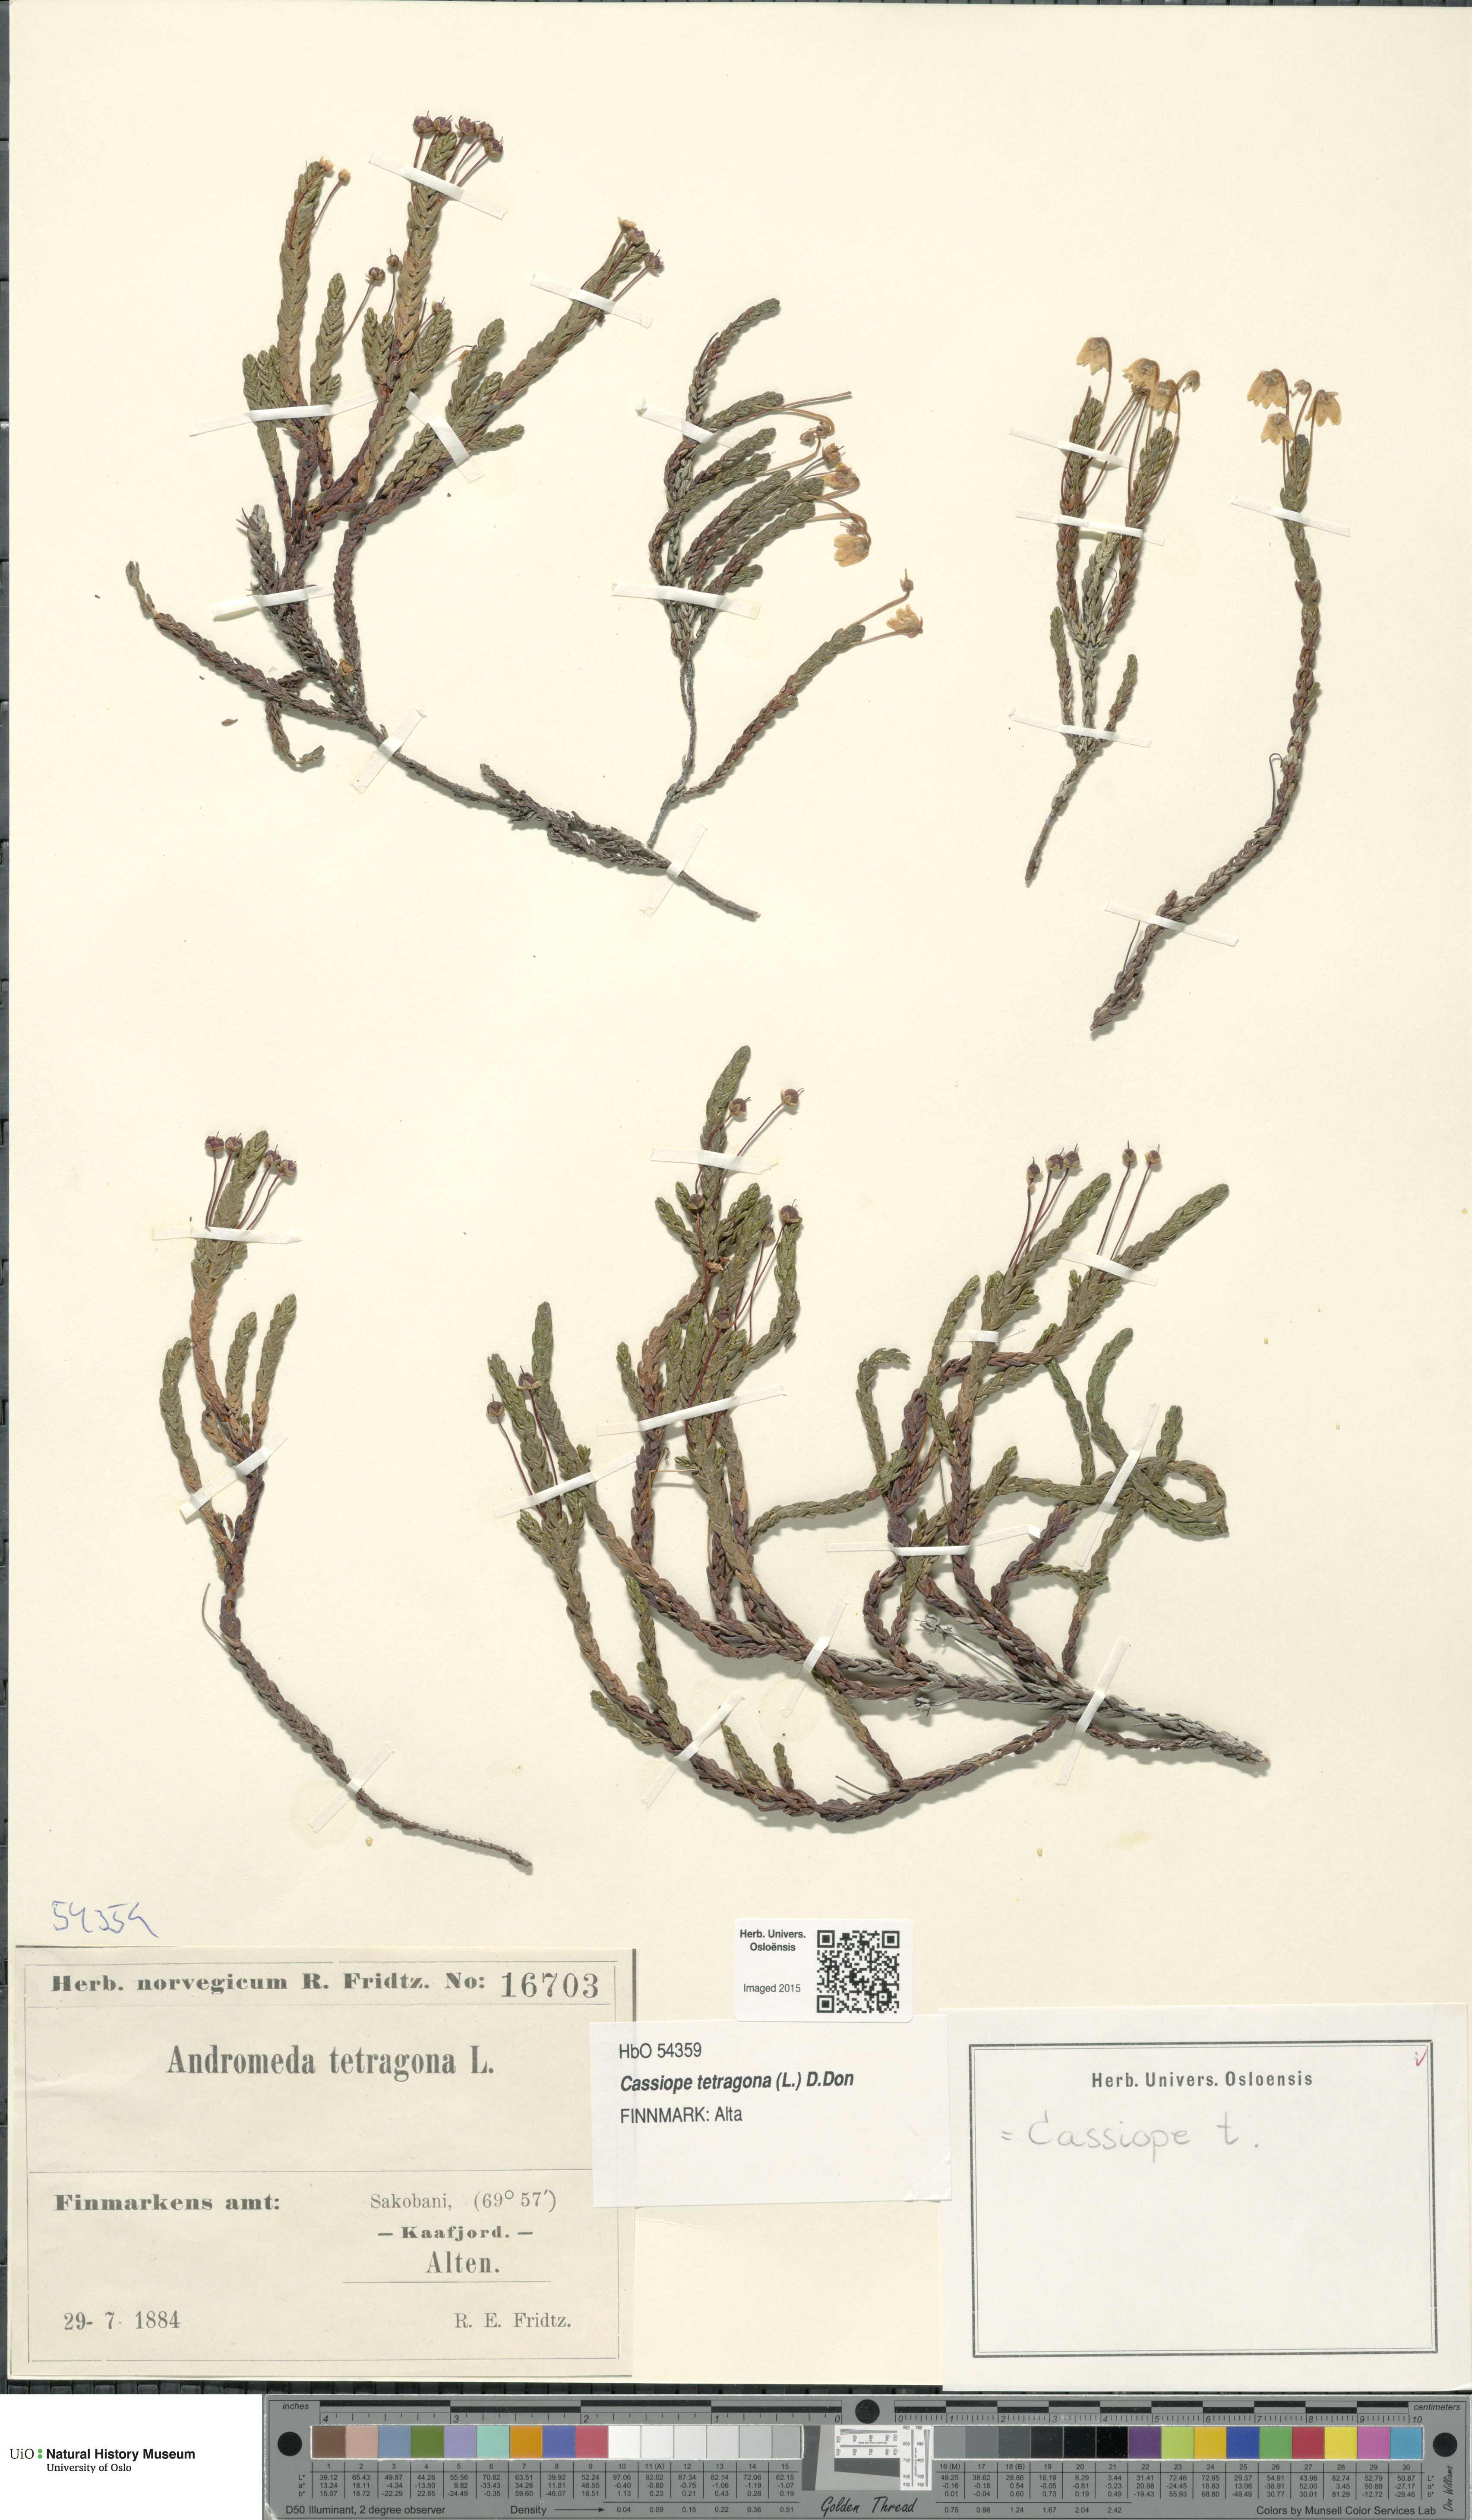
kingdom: Plantae
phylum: Tracheophyta
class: Magnoliopsida
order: Ericales
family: Ericaceae
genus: Cassiope
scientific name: Cassiope tetragona
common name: Arctic bell heather
